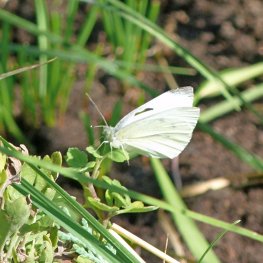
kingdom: Animalia
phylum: Arthropoda
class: Insecta
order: Lepidoptera
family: Pieridae
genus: Pieris
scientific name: Pieris rapae
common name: Cabbage White
